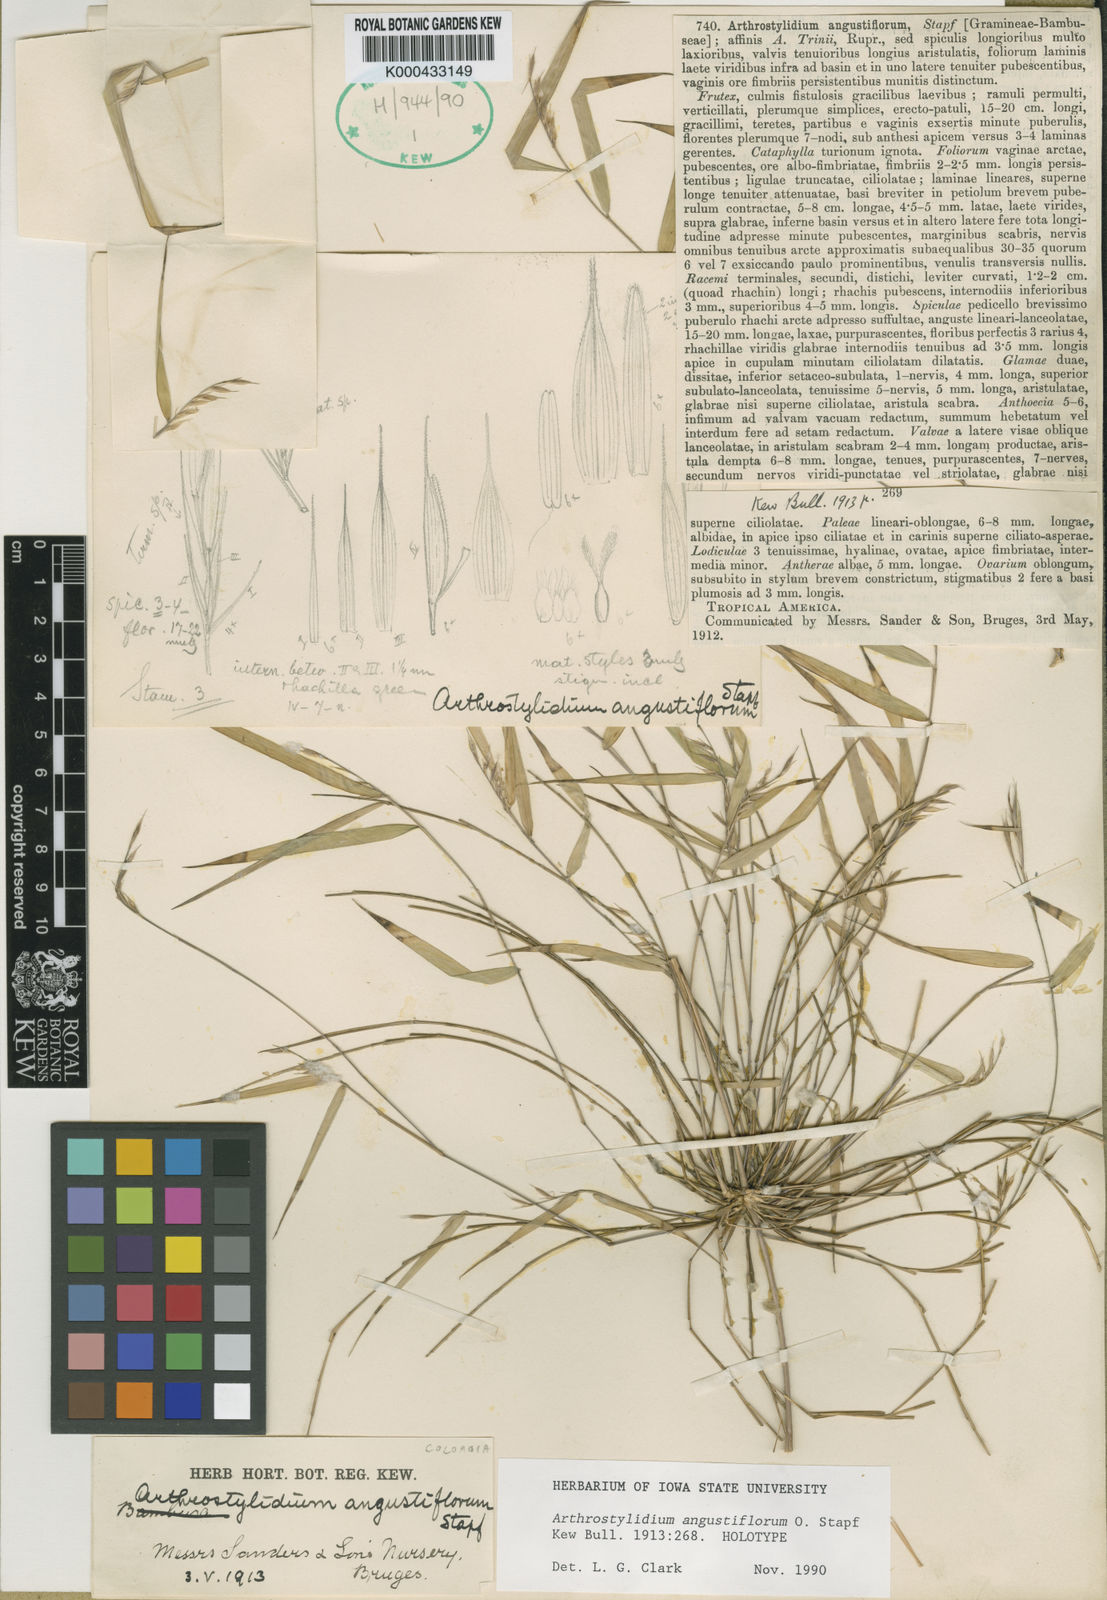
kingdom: Plantae
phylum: Tracheophyta
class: Liliopsida
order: Poales
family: Poaceae
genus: Rhipidocladum
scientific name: Rhipidocladum parviflorum
